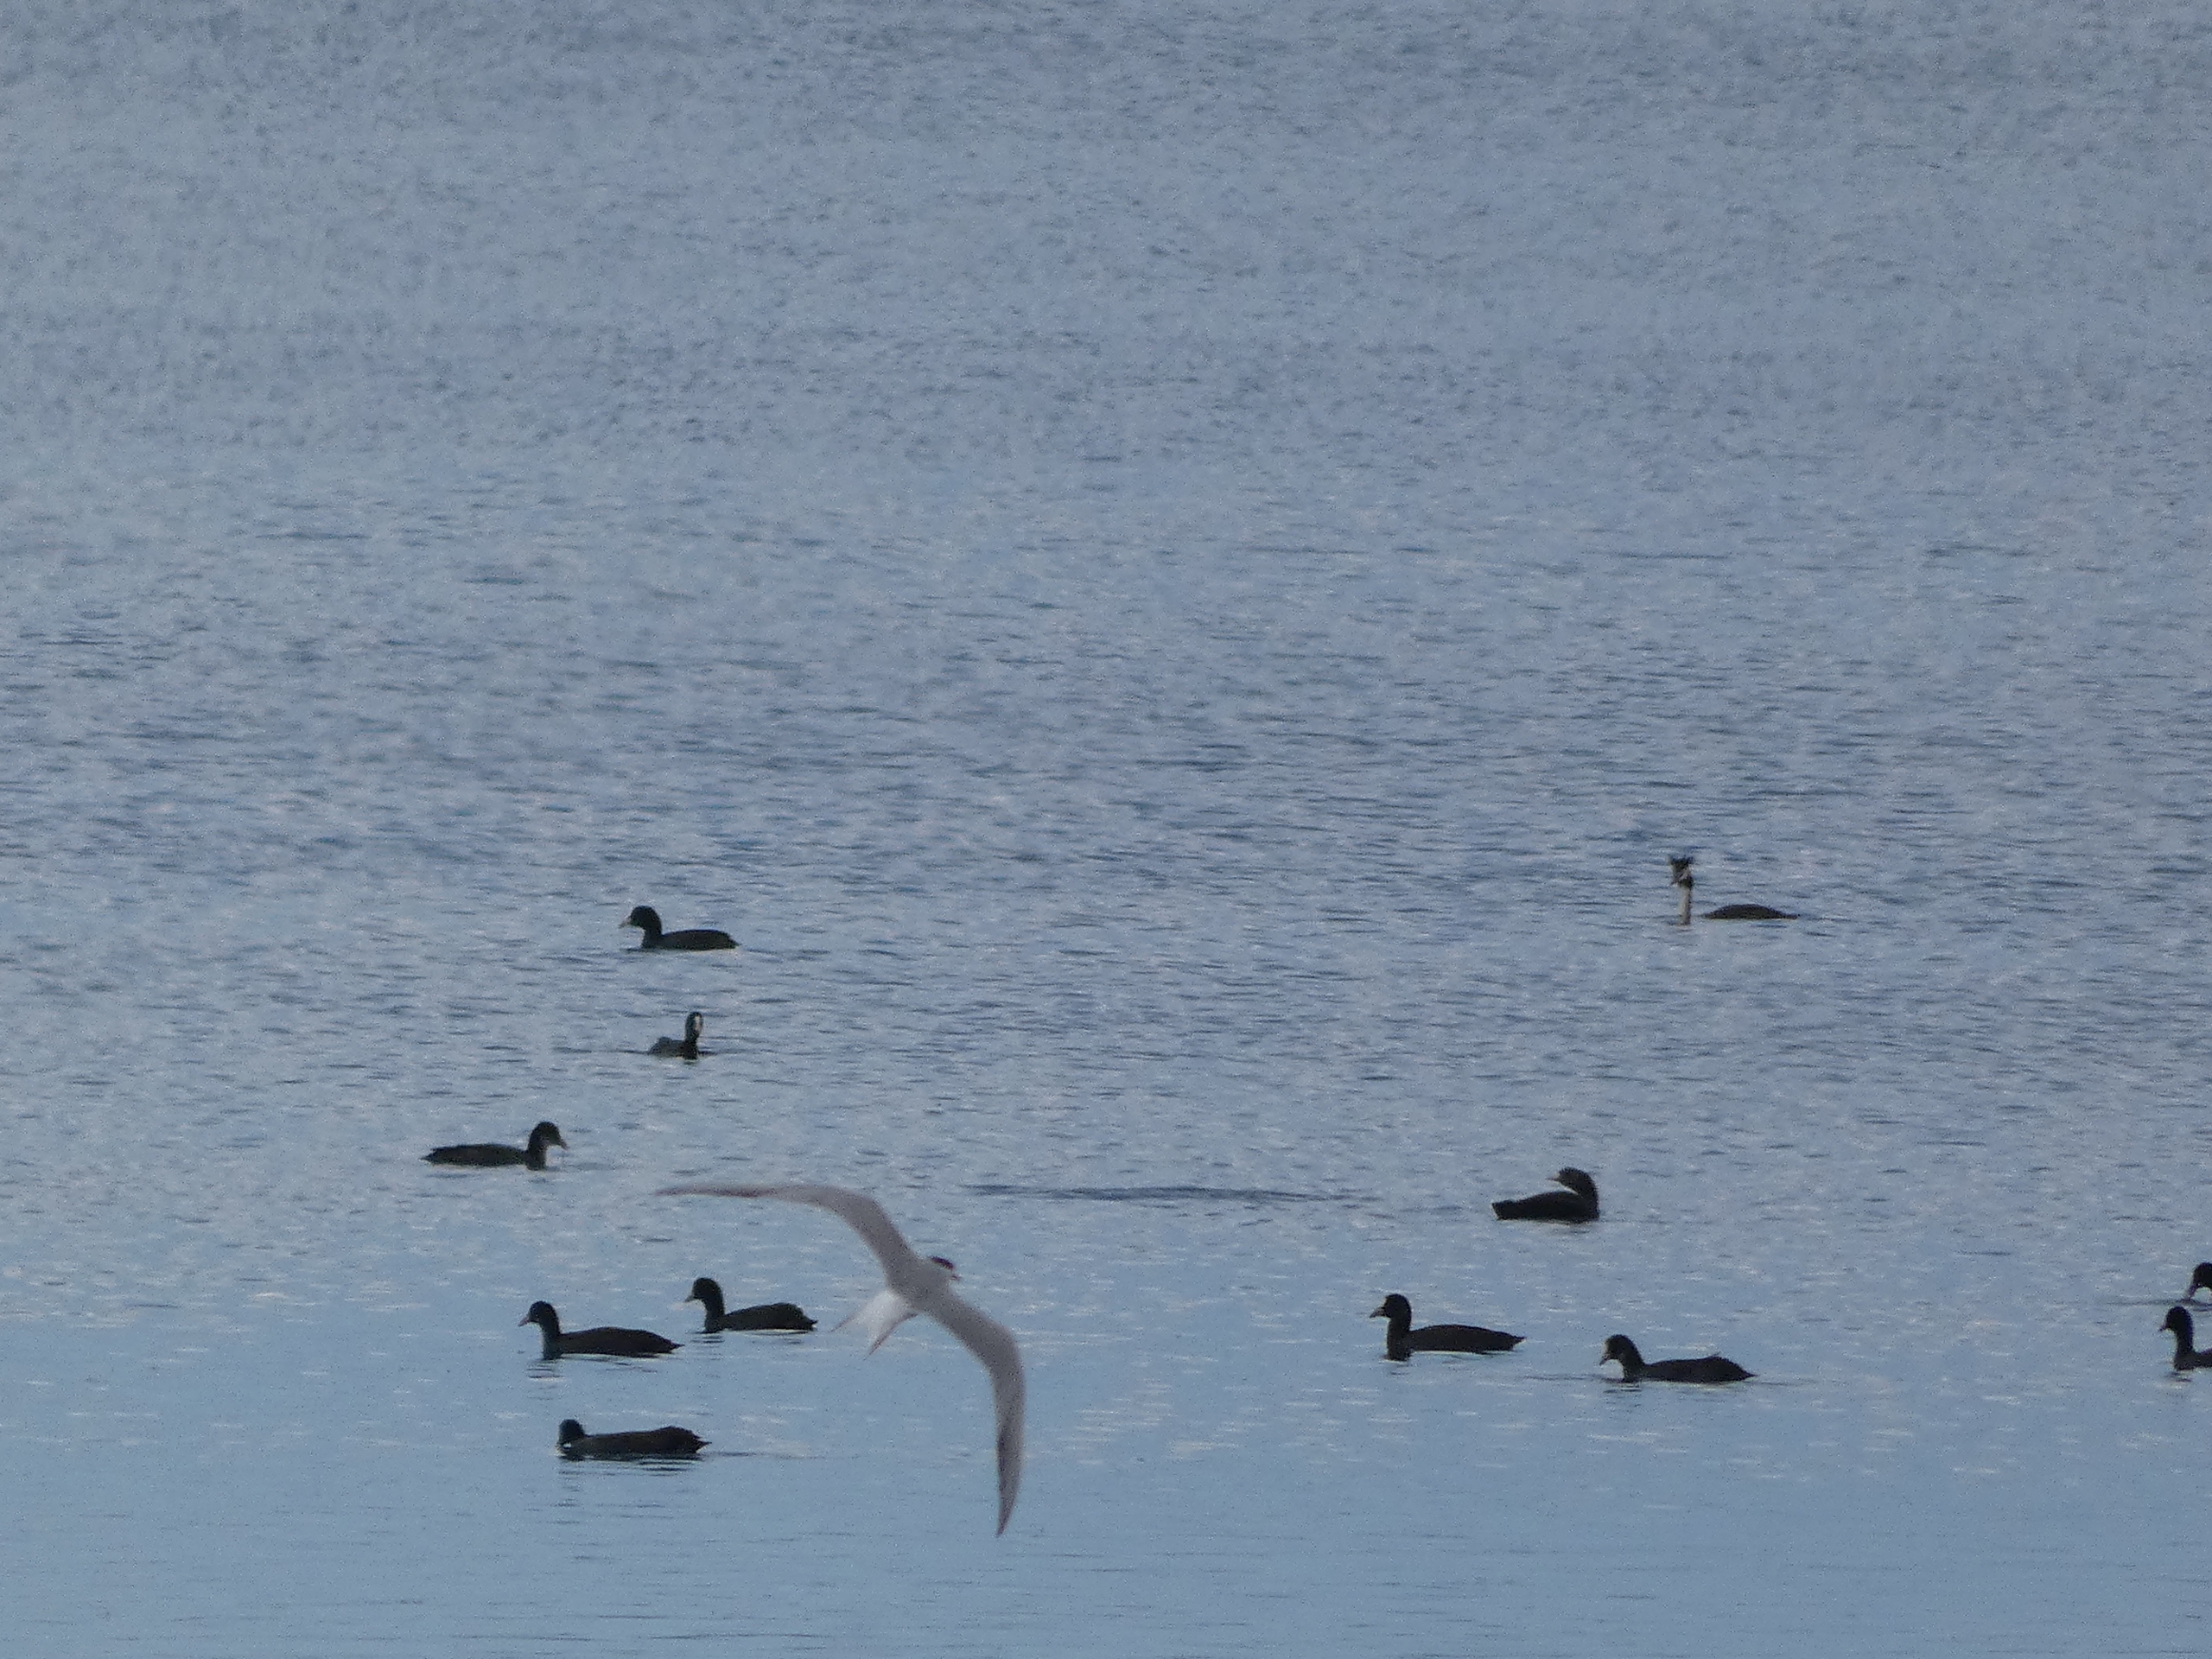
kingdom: Animalia
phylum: Chordata
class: Aves
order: Podicipediformes
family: Podicipedidae
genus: Podiceps
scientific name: Podiceps cristatus
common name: Toppet lappedykker
